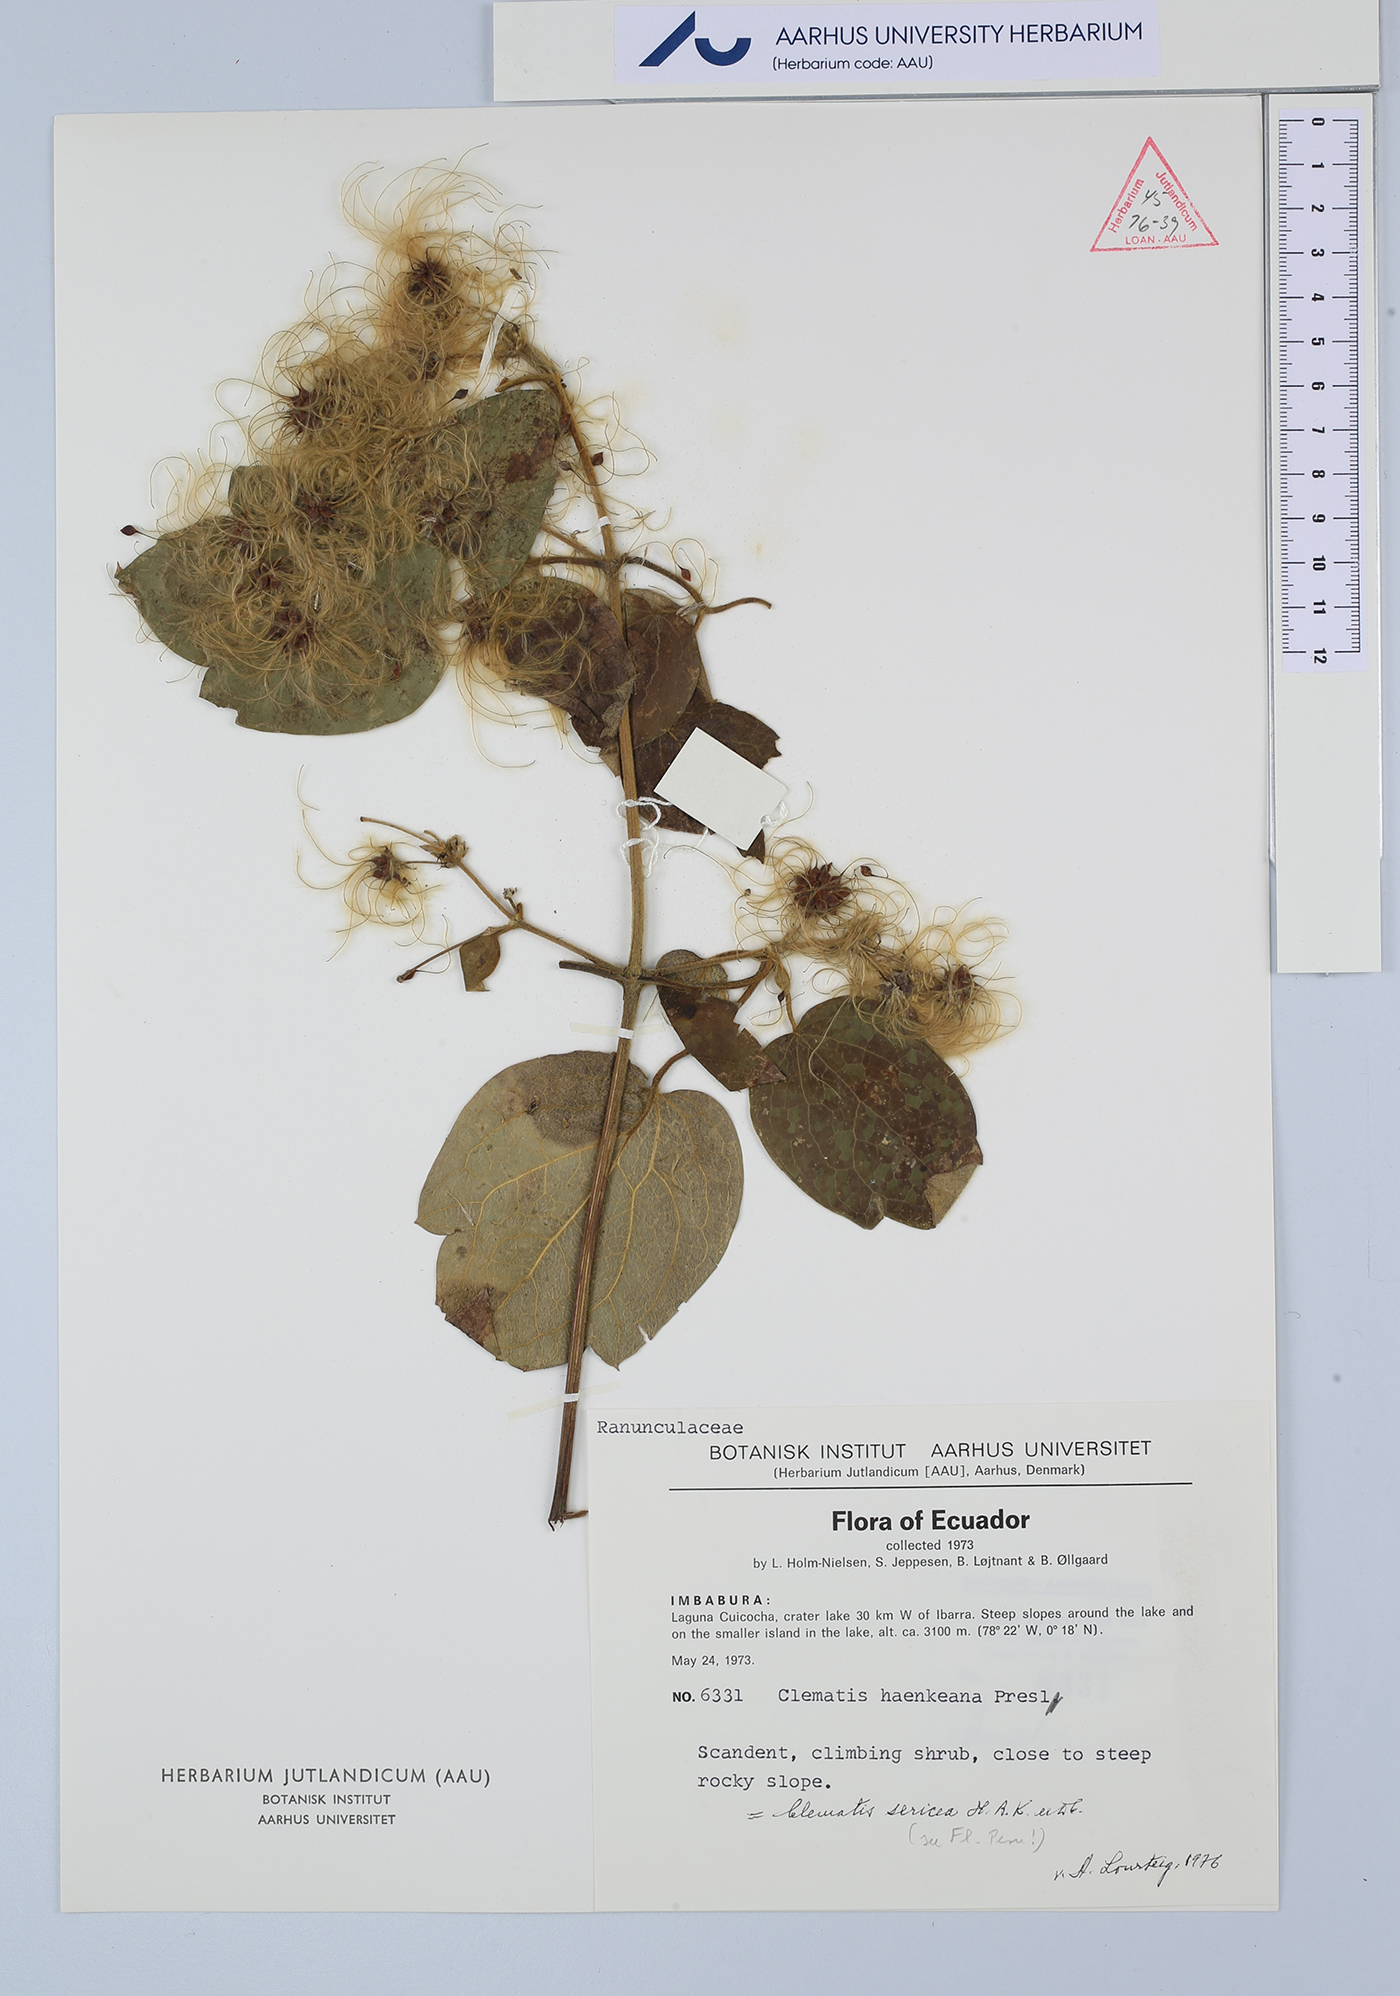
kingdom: Plantae
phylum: Tracheophyta
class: Magnoliopsida
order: Ranunculales
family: Ranunculaceae
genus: Clematis
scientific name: Clematis haenkeana
